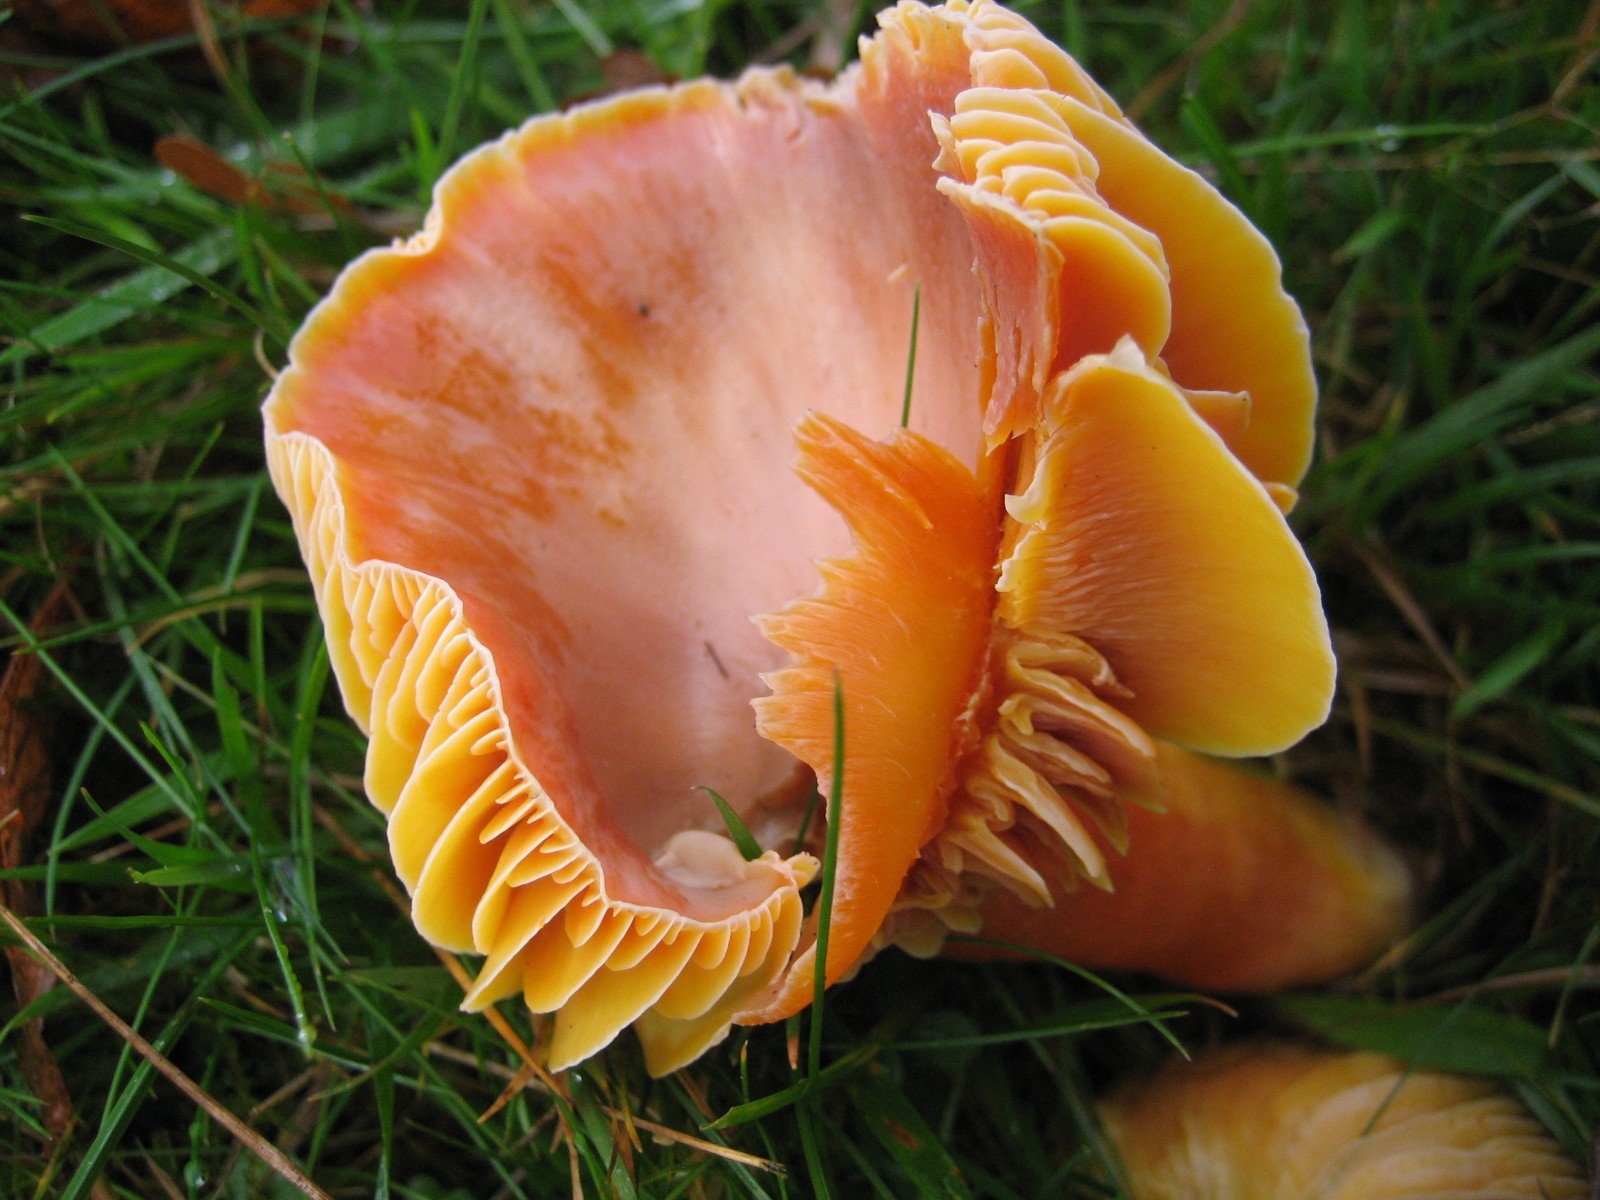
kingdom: Fungi
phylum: Basidiomycota
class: Agaricomycetes
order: Agaricales
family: Hygrophoraceae
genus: Hygrocybe
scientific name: Hygrocybe punicea
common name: skarlagen-vokshat
